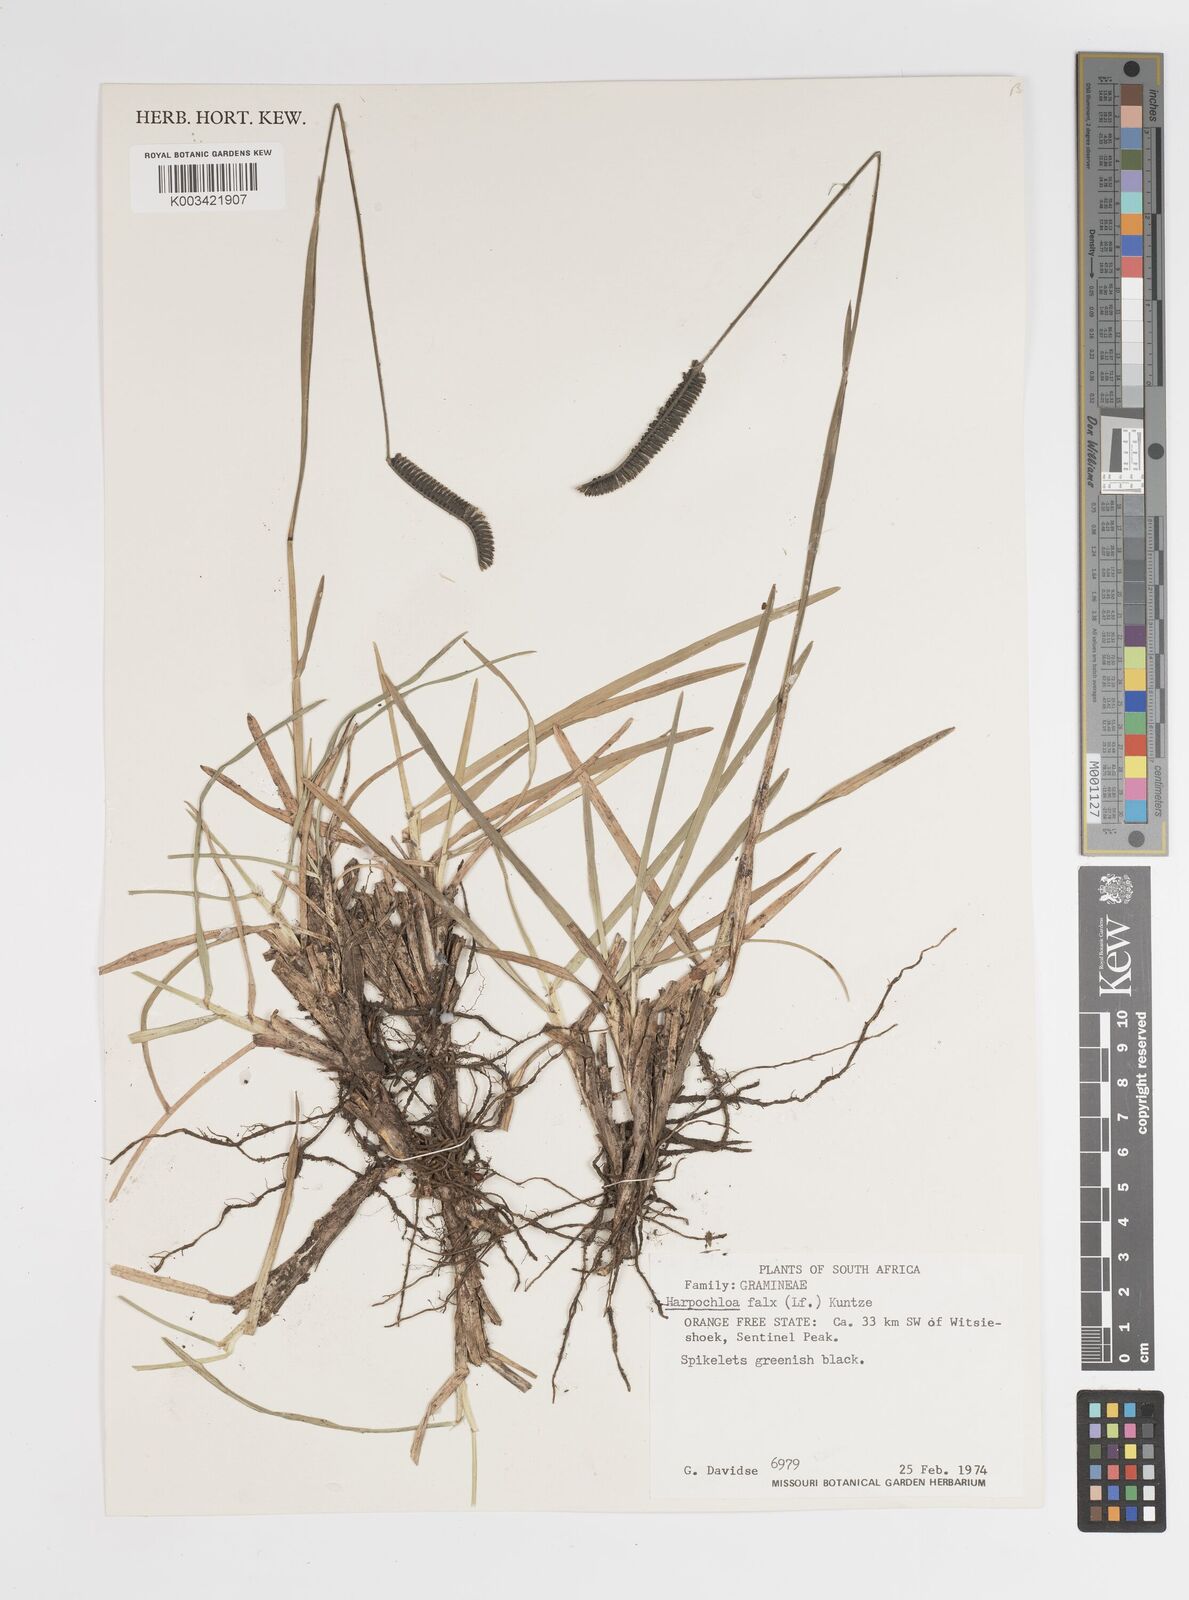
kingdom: Plantae
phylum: Tracheophyta
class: Liliopsida
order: Poales
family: Poaceae
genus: Harpochloa
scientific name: Harpochloa falx
